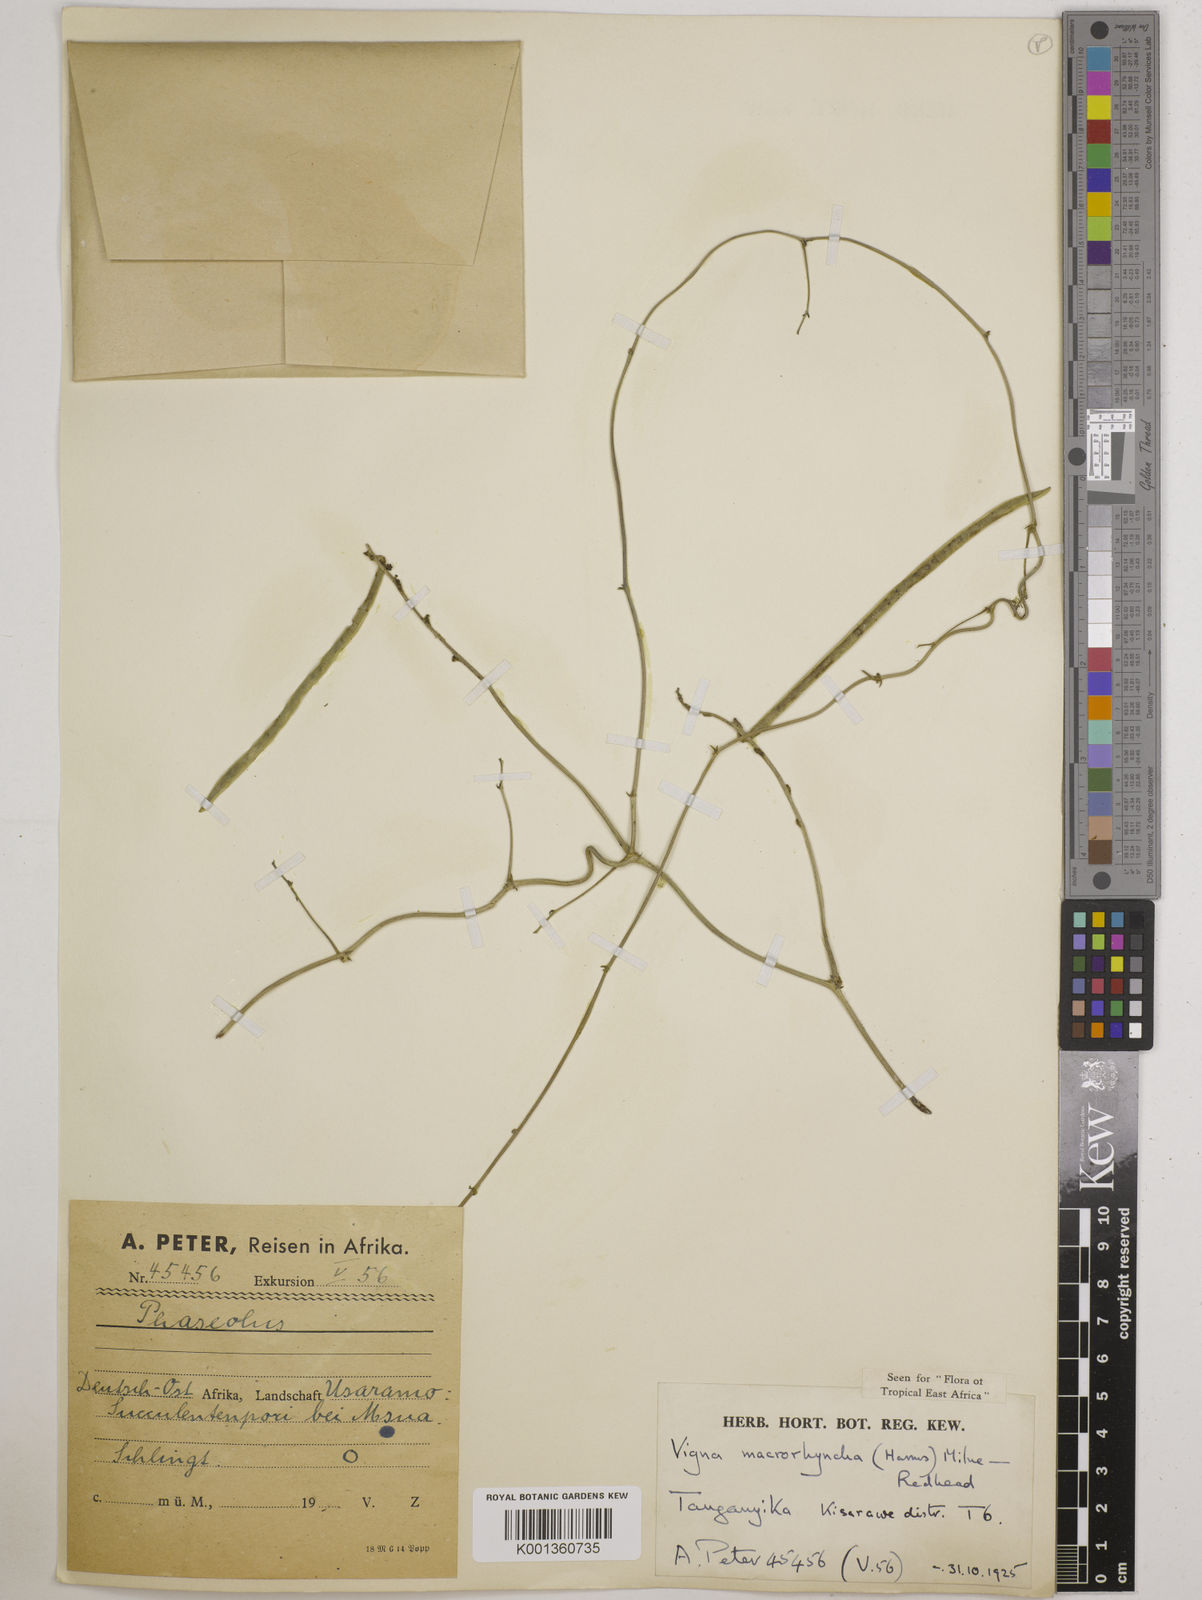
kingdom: Plantae
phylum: Tracheophyta
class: Magnoliopsida
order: Fabales
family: Fabaceae
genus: Wajira
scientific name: Wajira grahamiana
